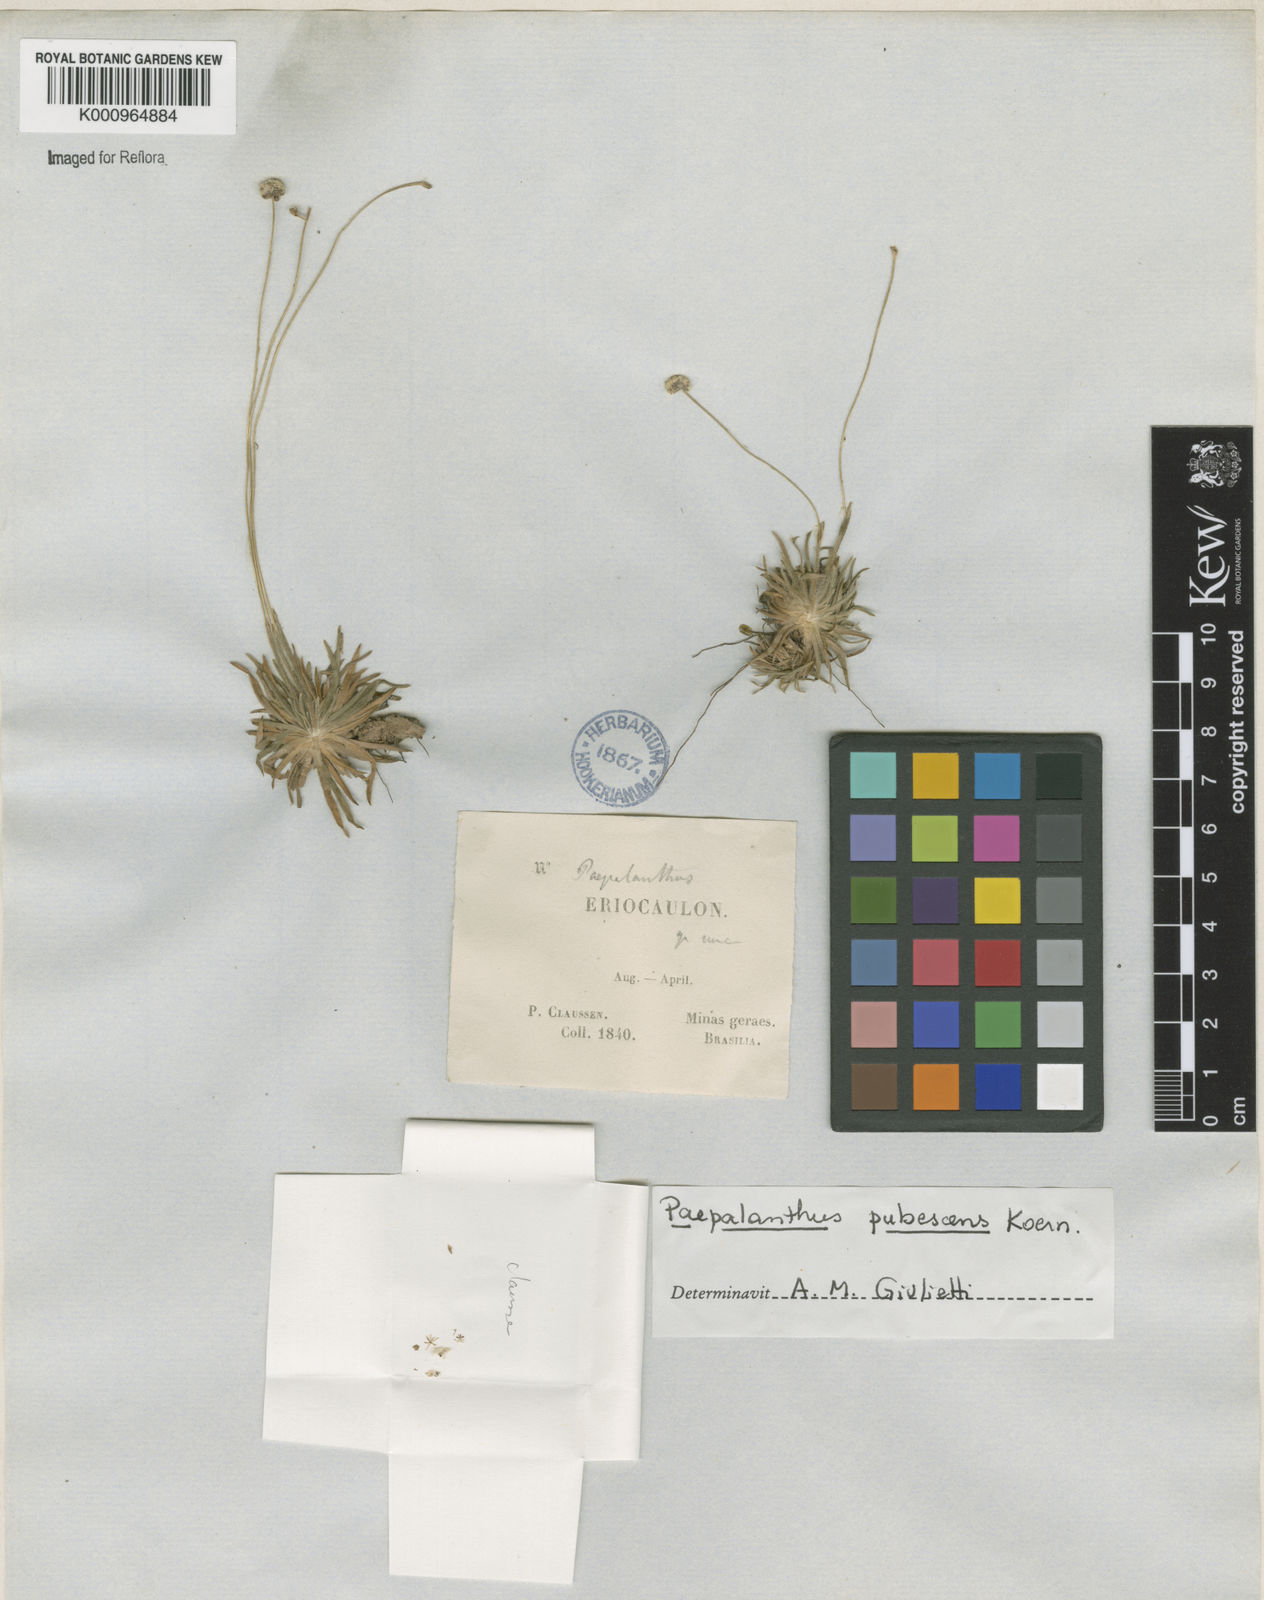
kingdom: Plantae
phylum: Tracheophyta
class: Liliopsida
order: Poales
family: Eriocaulaceae
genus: Paepalanthus
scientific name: Paepalanthus
